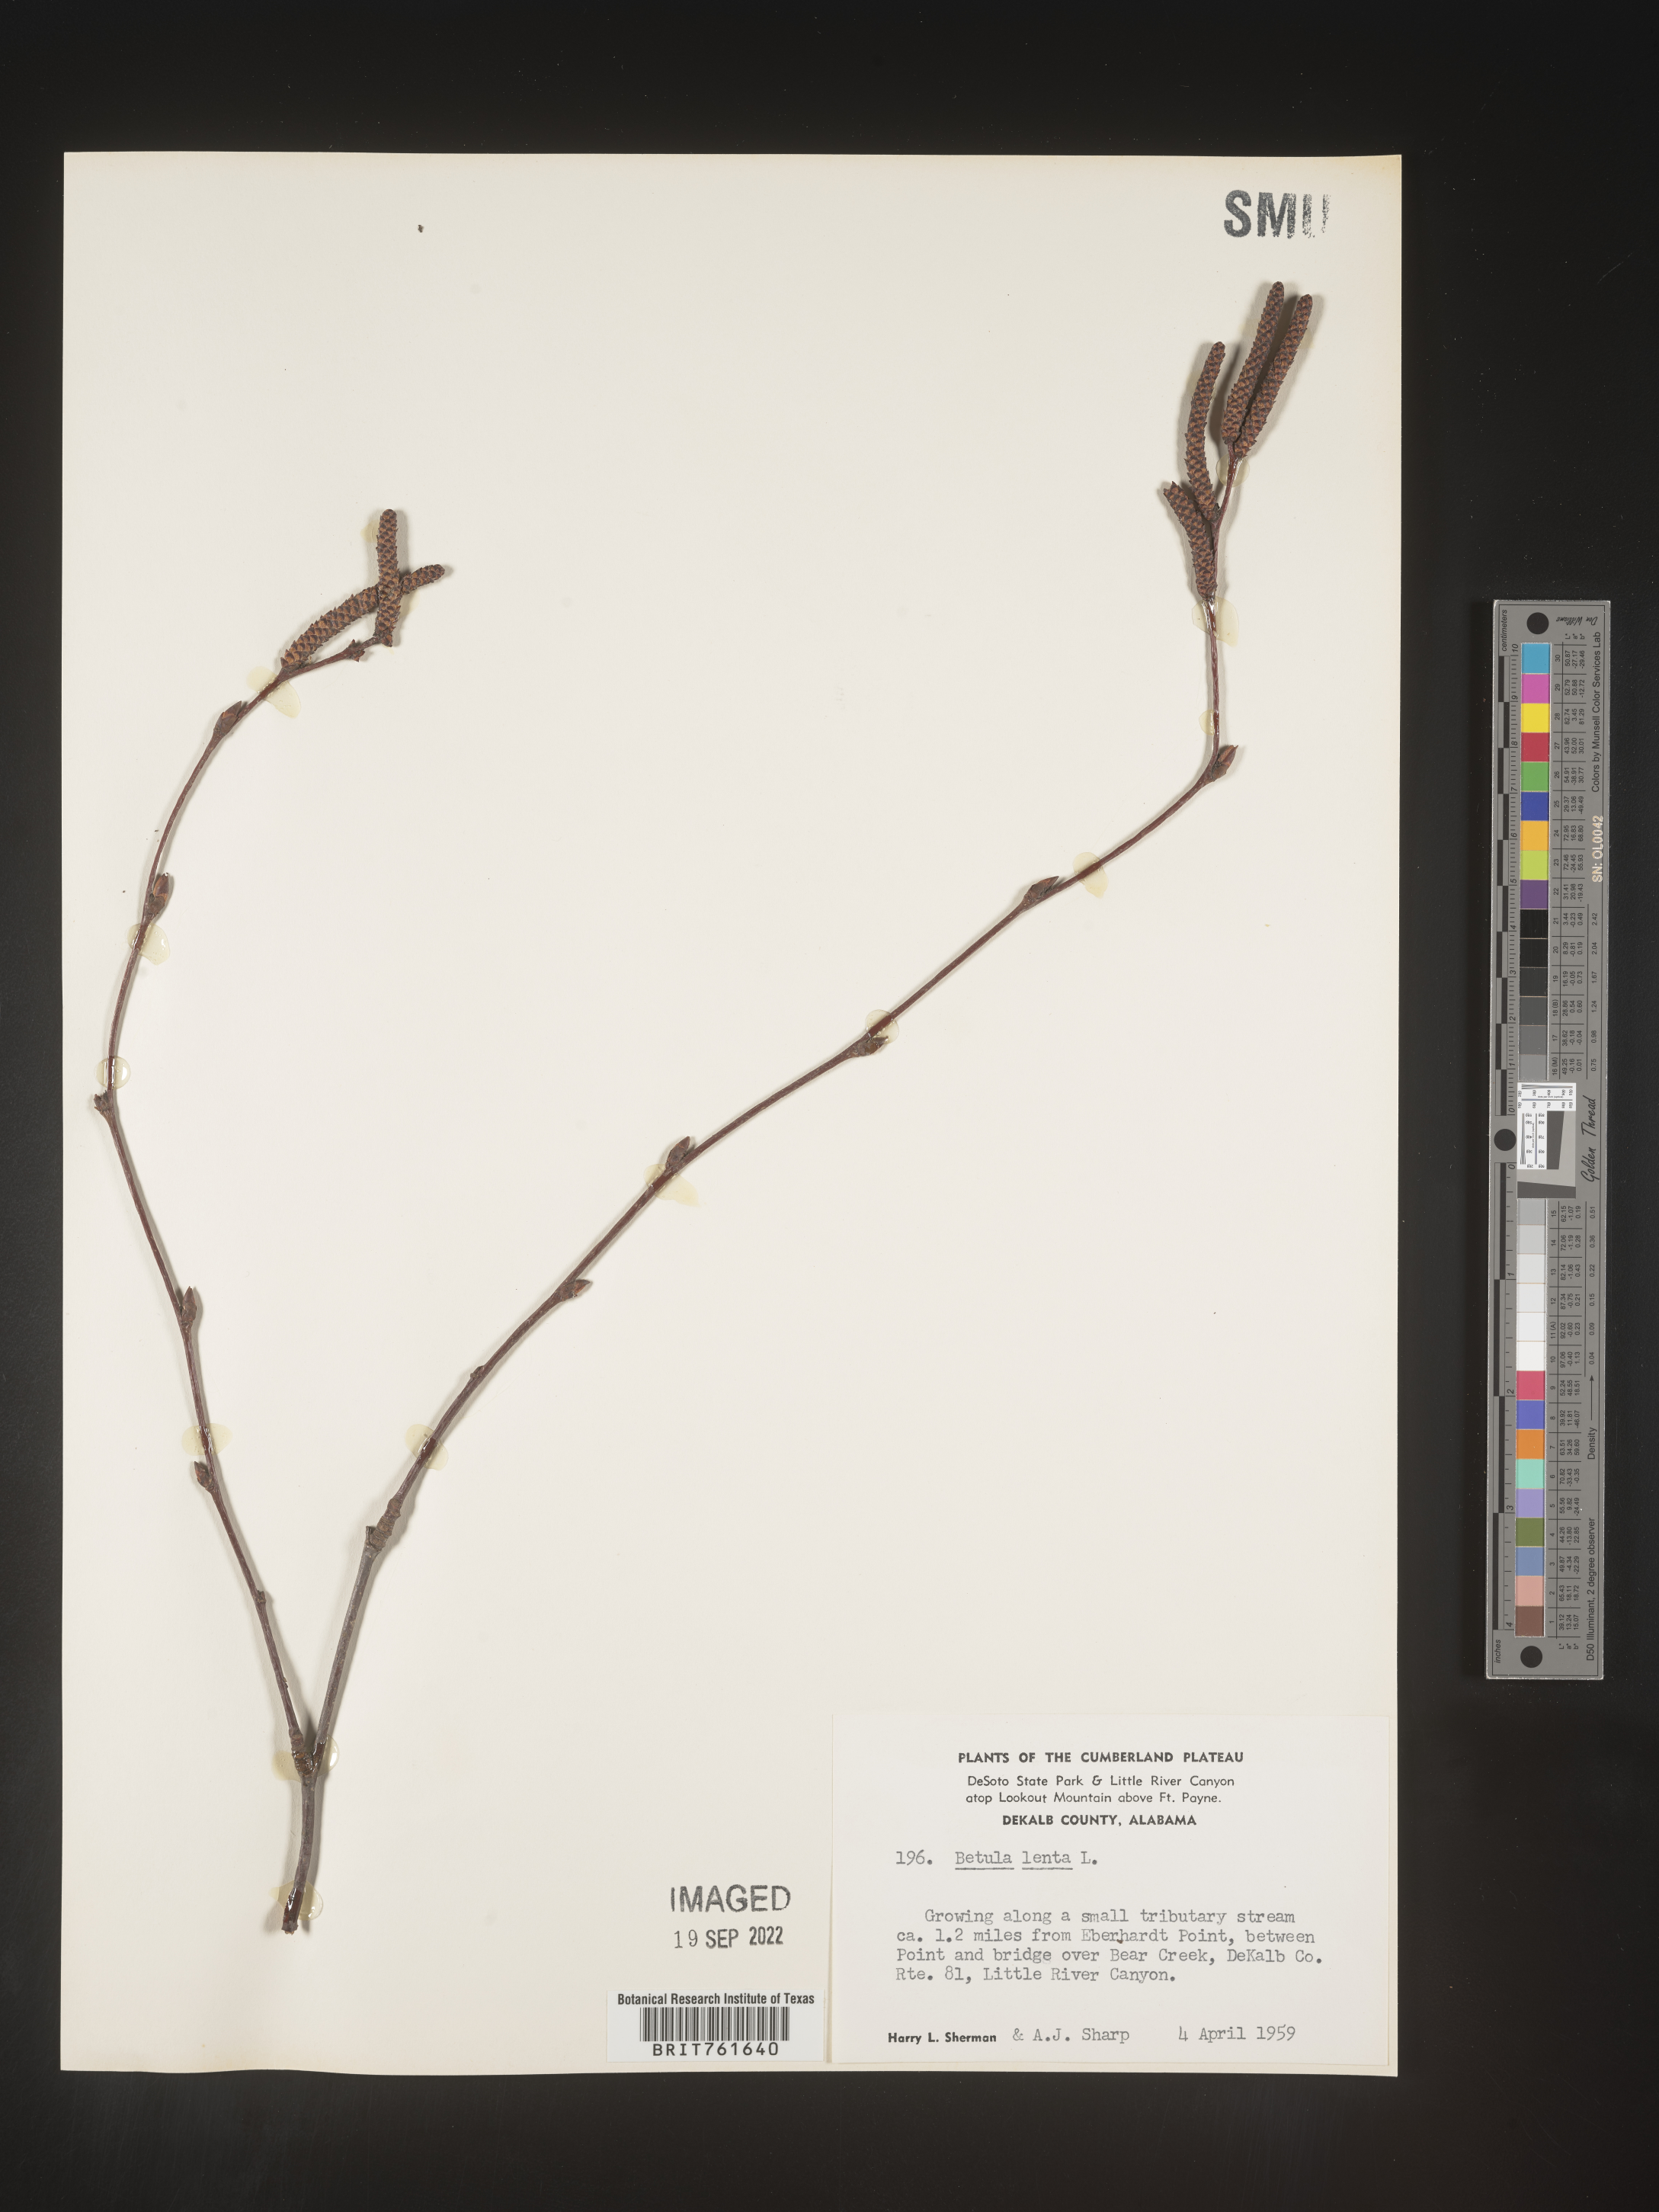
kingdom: Plantae
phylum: Tracheophyta
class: Magnoliopsida
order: Fagales
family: Betulaceae
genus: Betula
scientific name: Betula lenta
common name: Black birch
